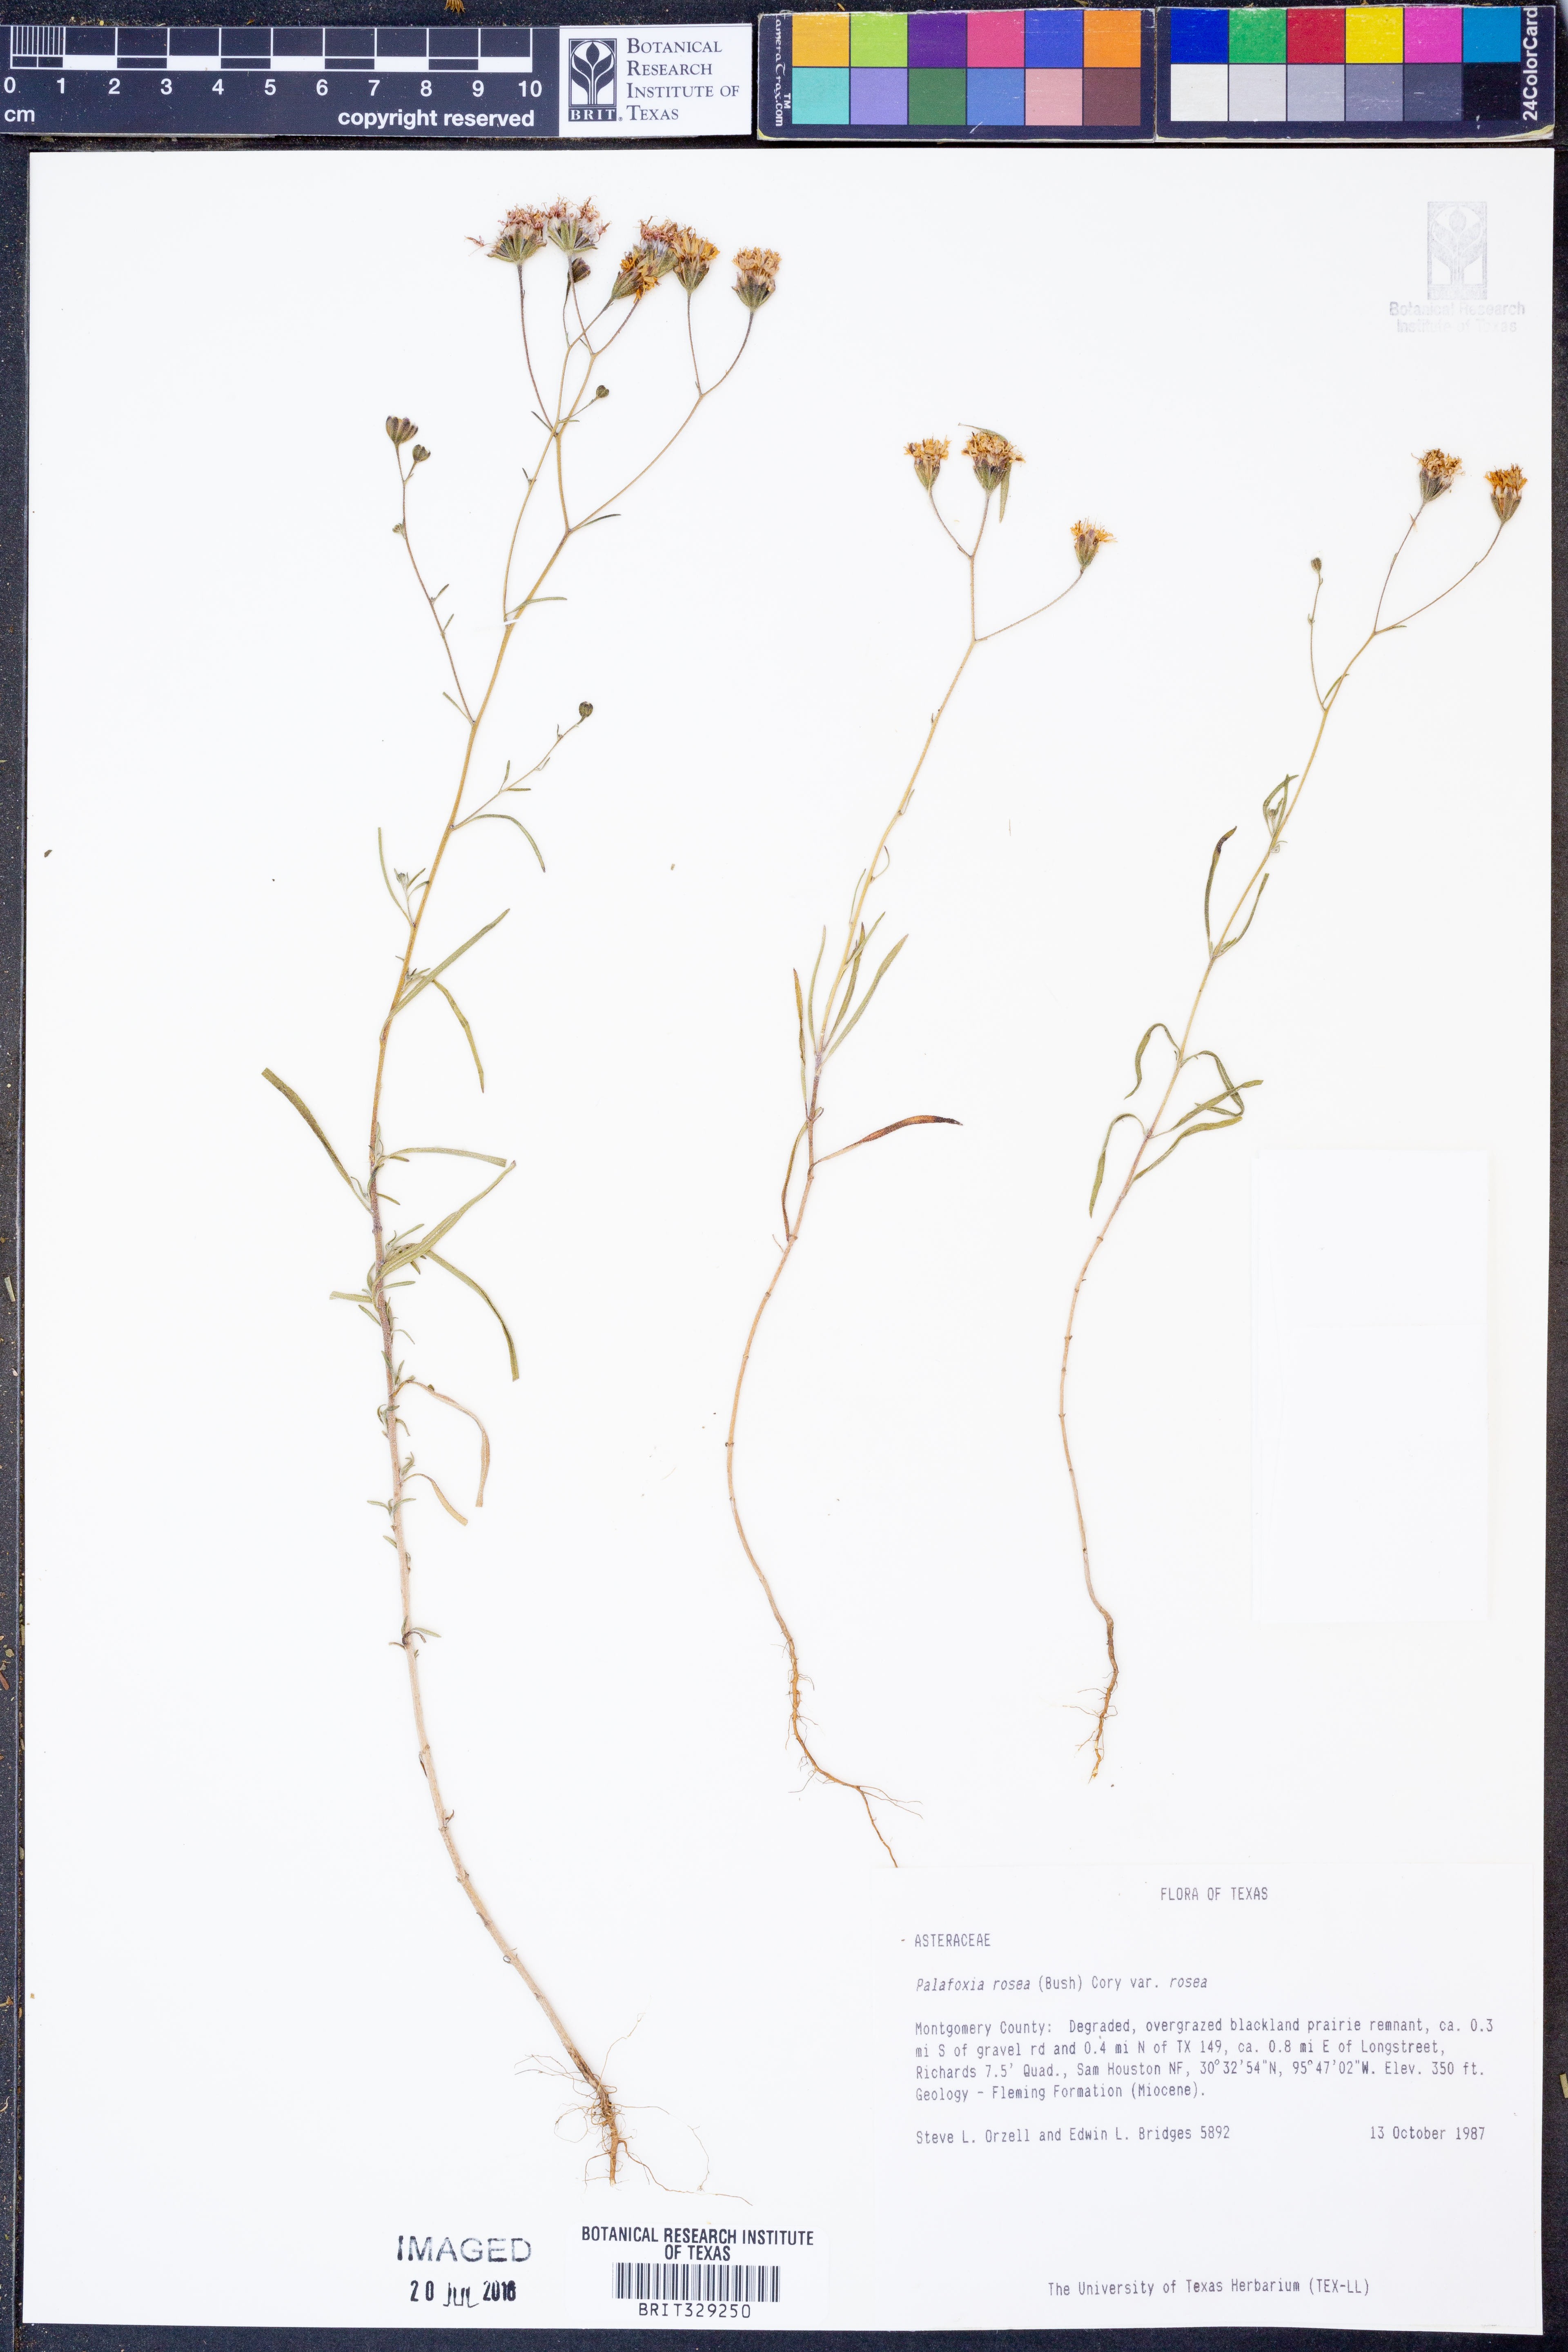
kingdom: Plantae
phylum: Tracheophyta
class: Magnoliopsida
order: Asterales
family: Asteraceae
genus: Palafoxia
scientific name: Palafoxia rosea
